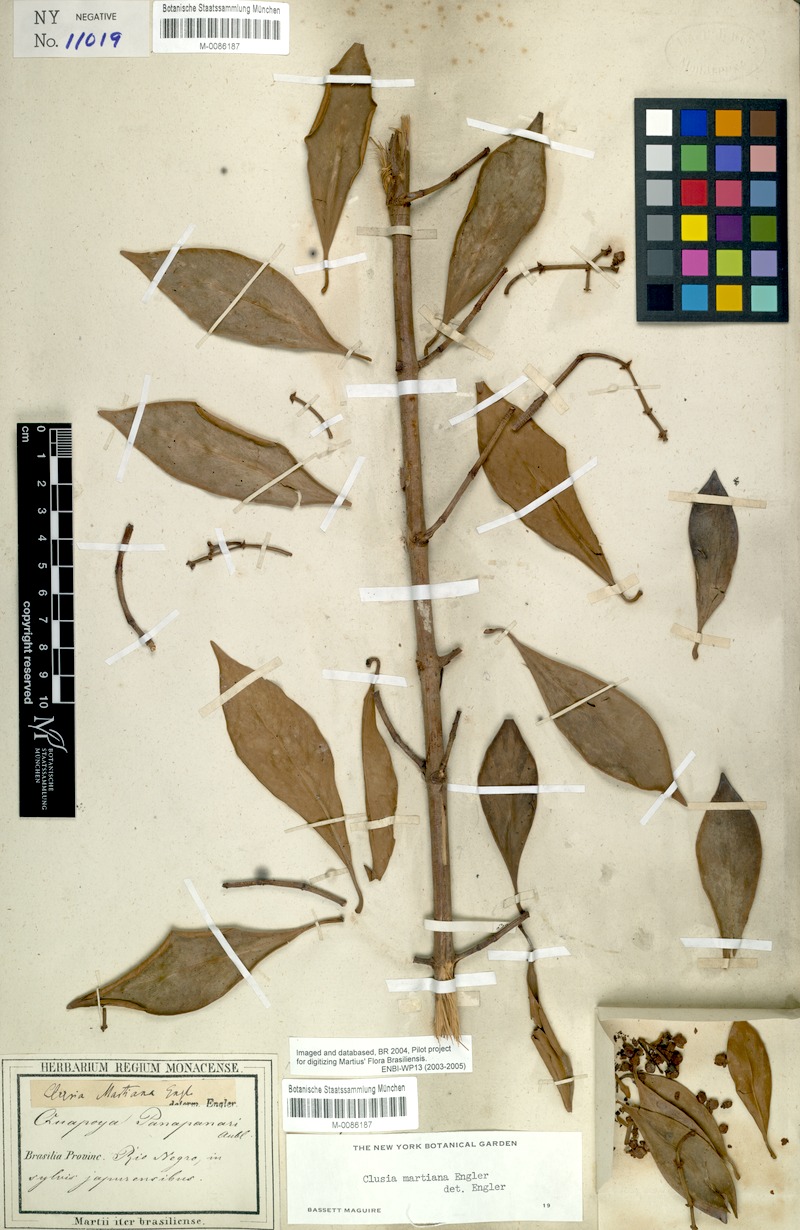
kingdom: Plantae
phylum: Tracheophyta
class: Magnoliopsida
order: Malpighiales
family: Clusiaceae
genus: Clusia
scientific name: Clusia martiana
